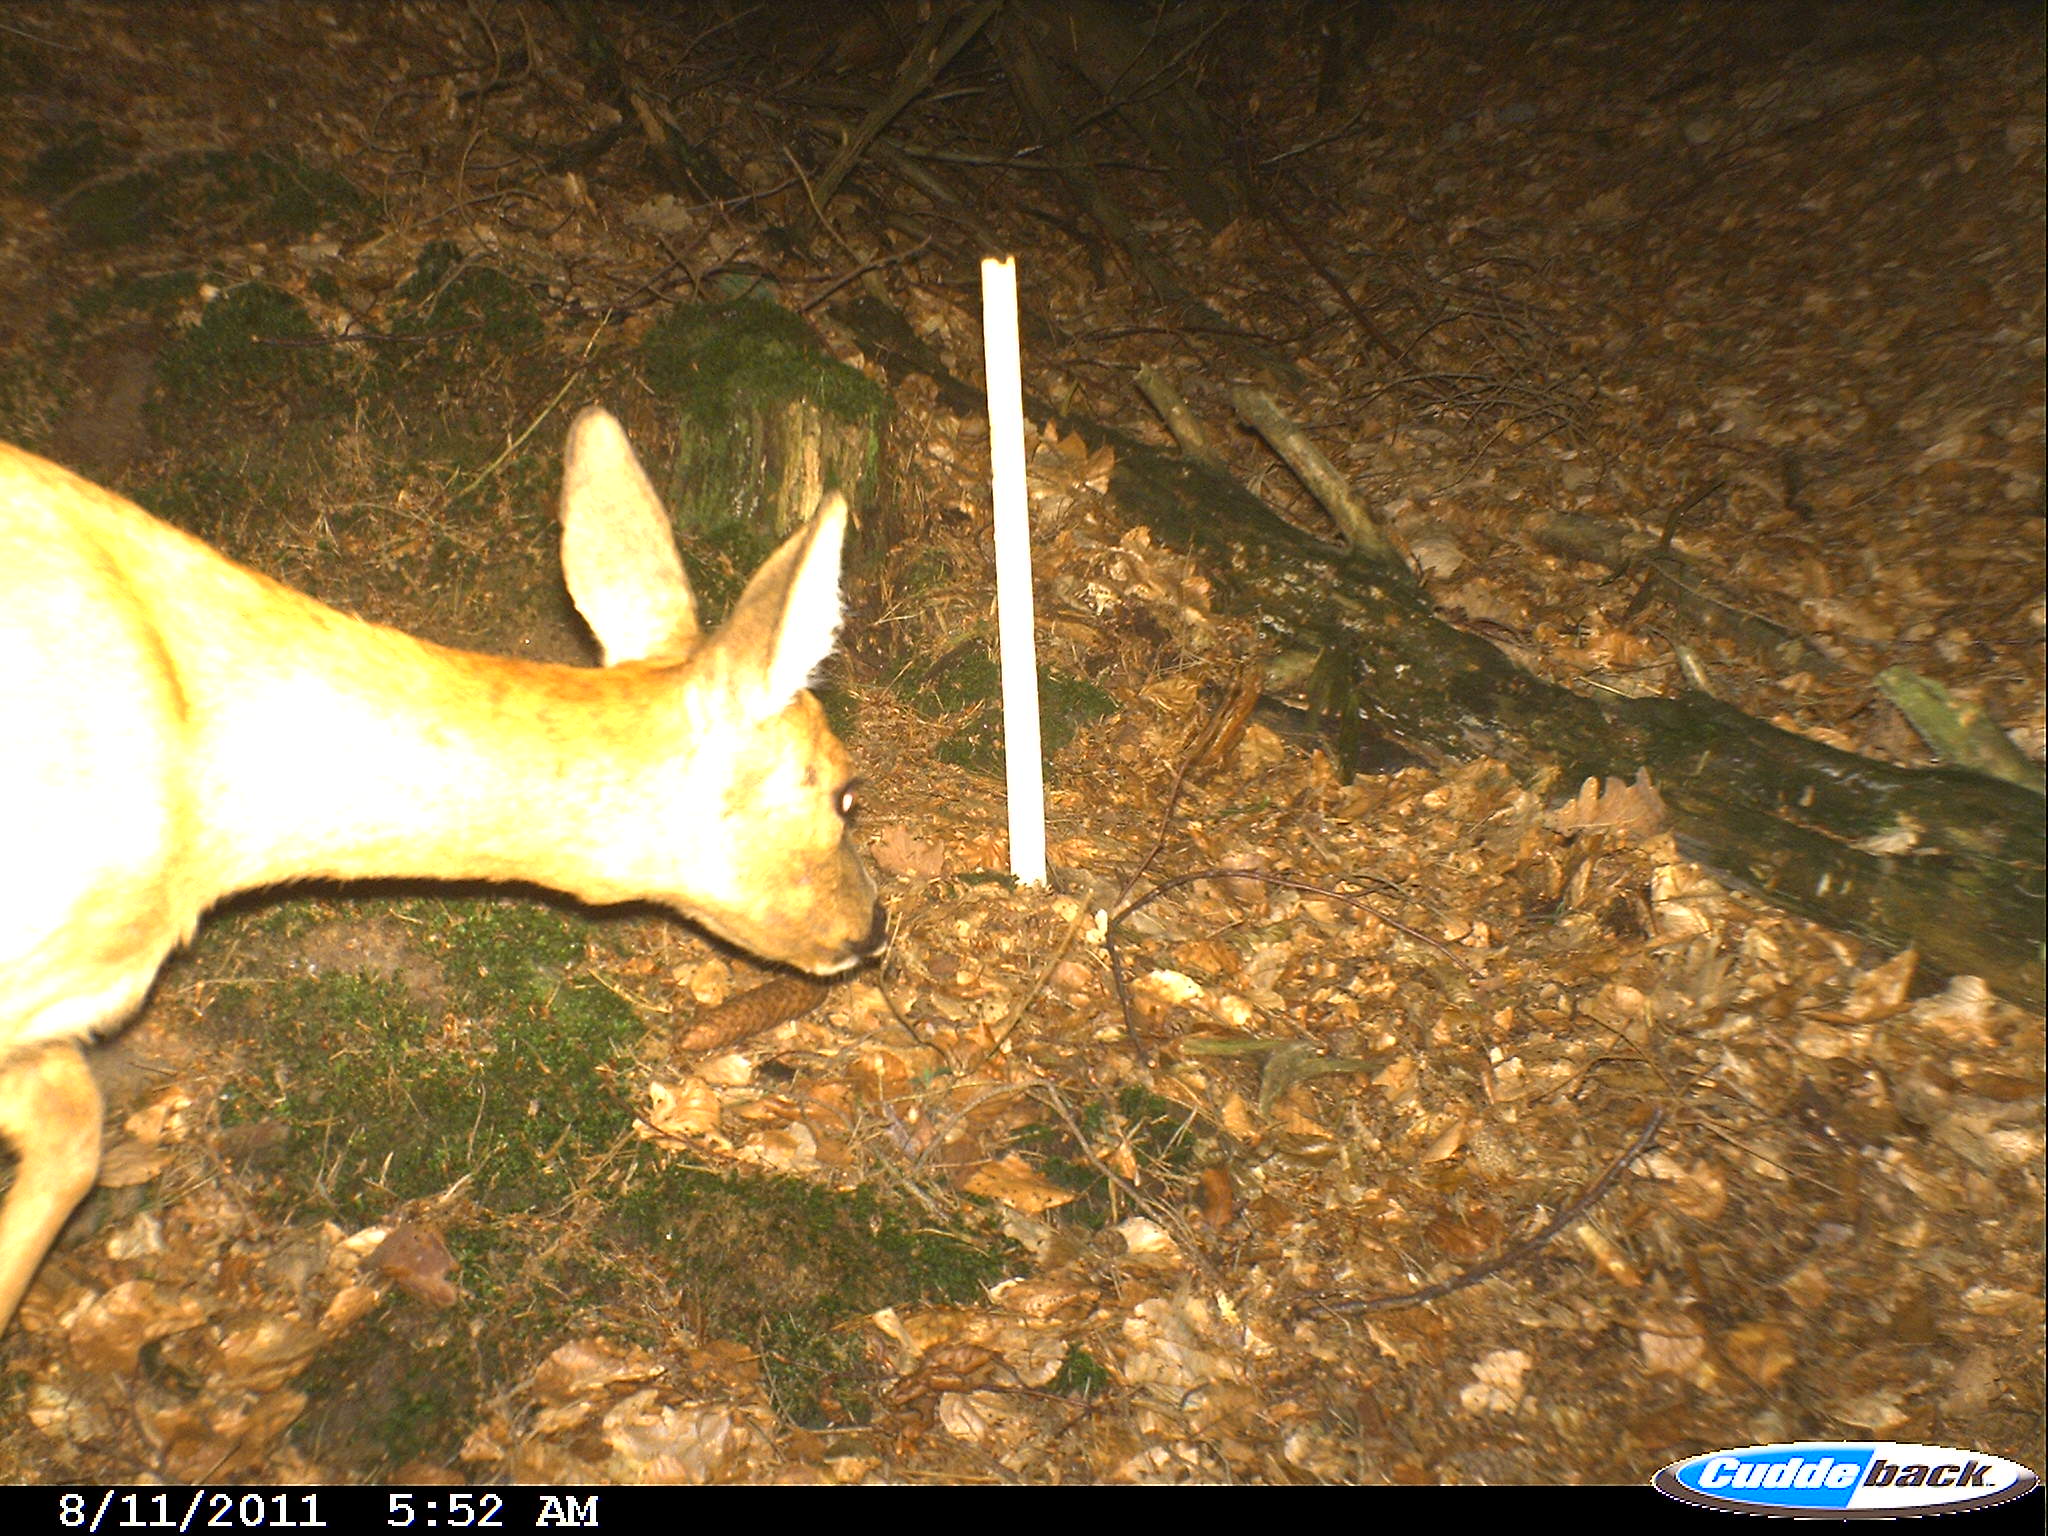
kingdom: Animalia
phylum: Chordata
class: Mammalia
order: Artiodactyla
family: Cervidae
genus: Capreolus
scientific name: Capreolus capreolus
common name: Western roe deer
